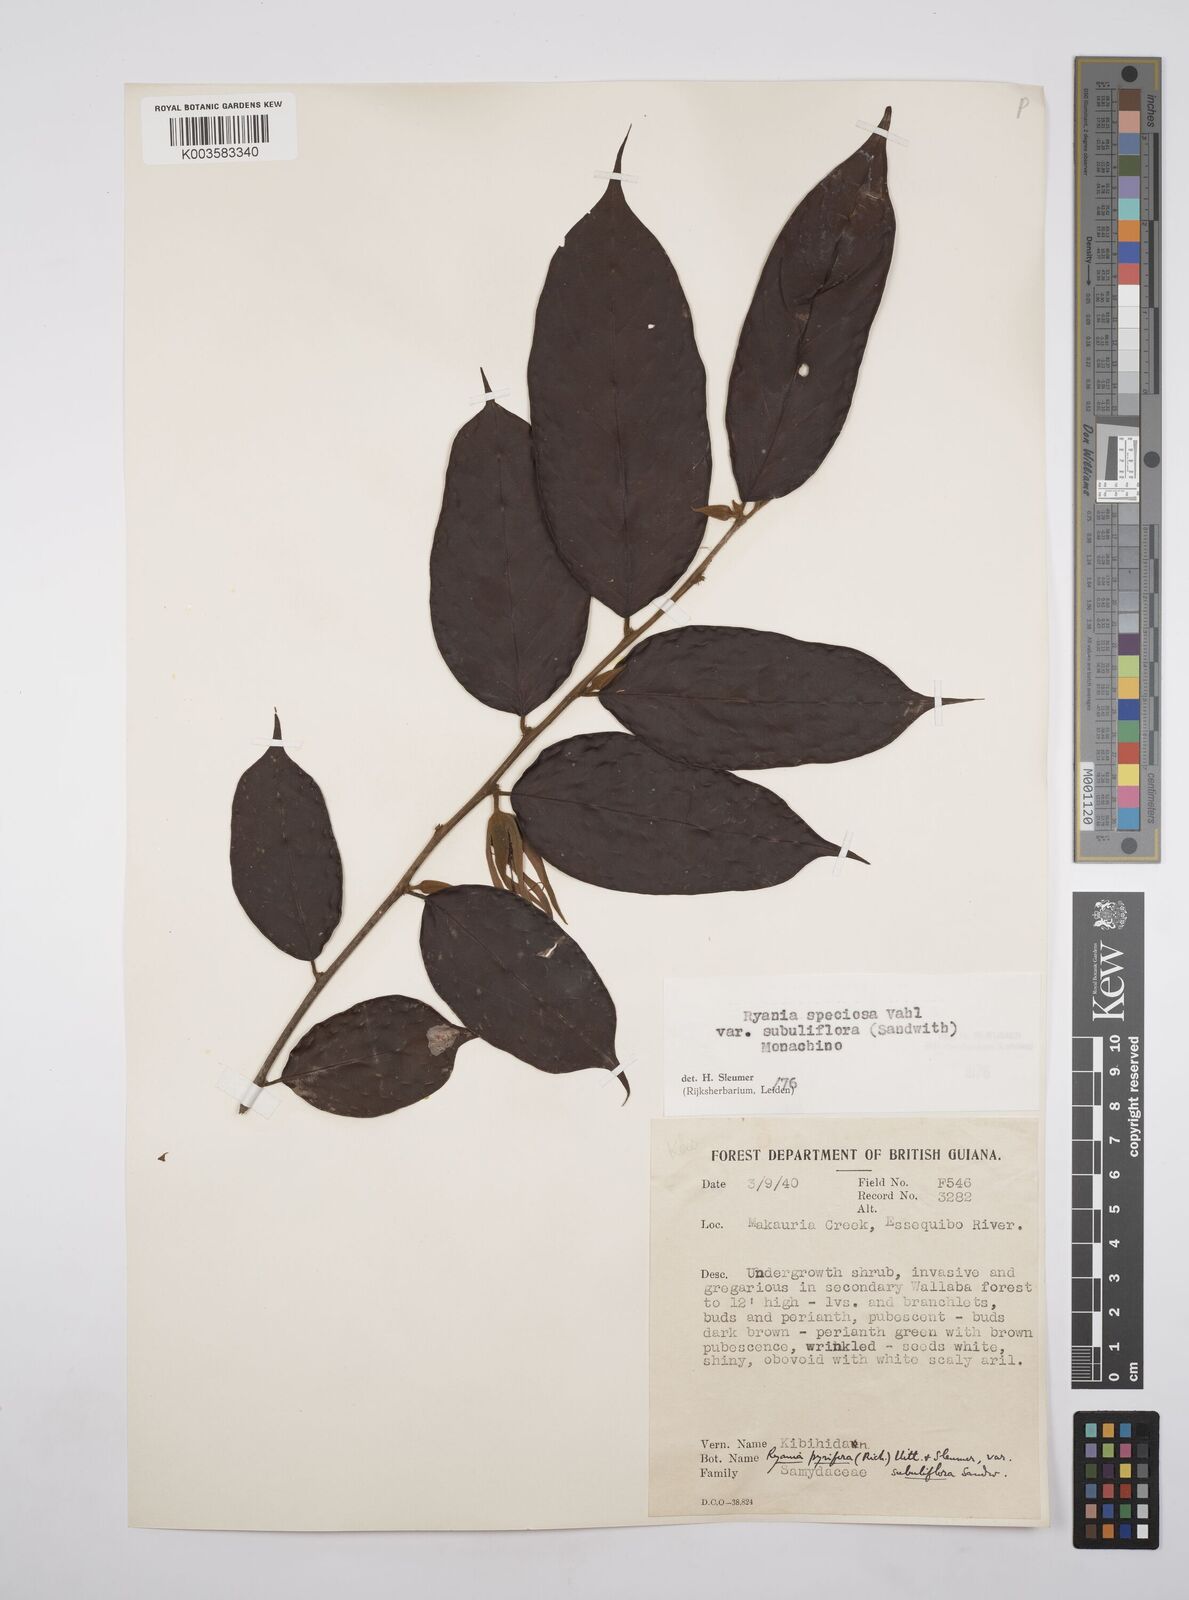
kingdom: Plantae
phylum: Tracheophyta
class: Magnoliopsida
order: Malpighiales
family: Salicaceae
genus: Ryania
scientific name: Ryania speciosa
